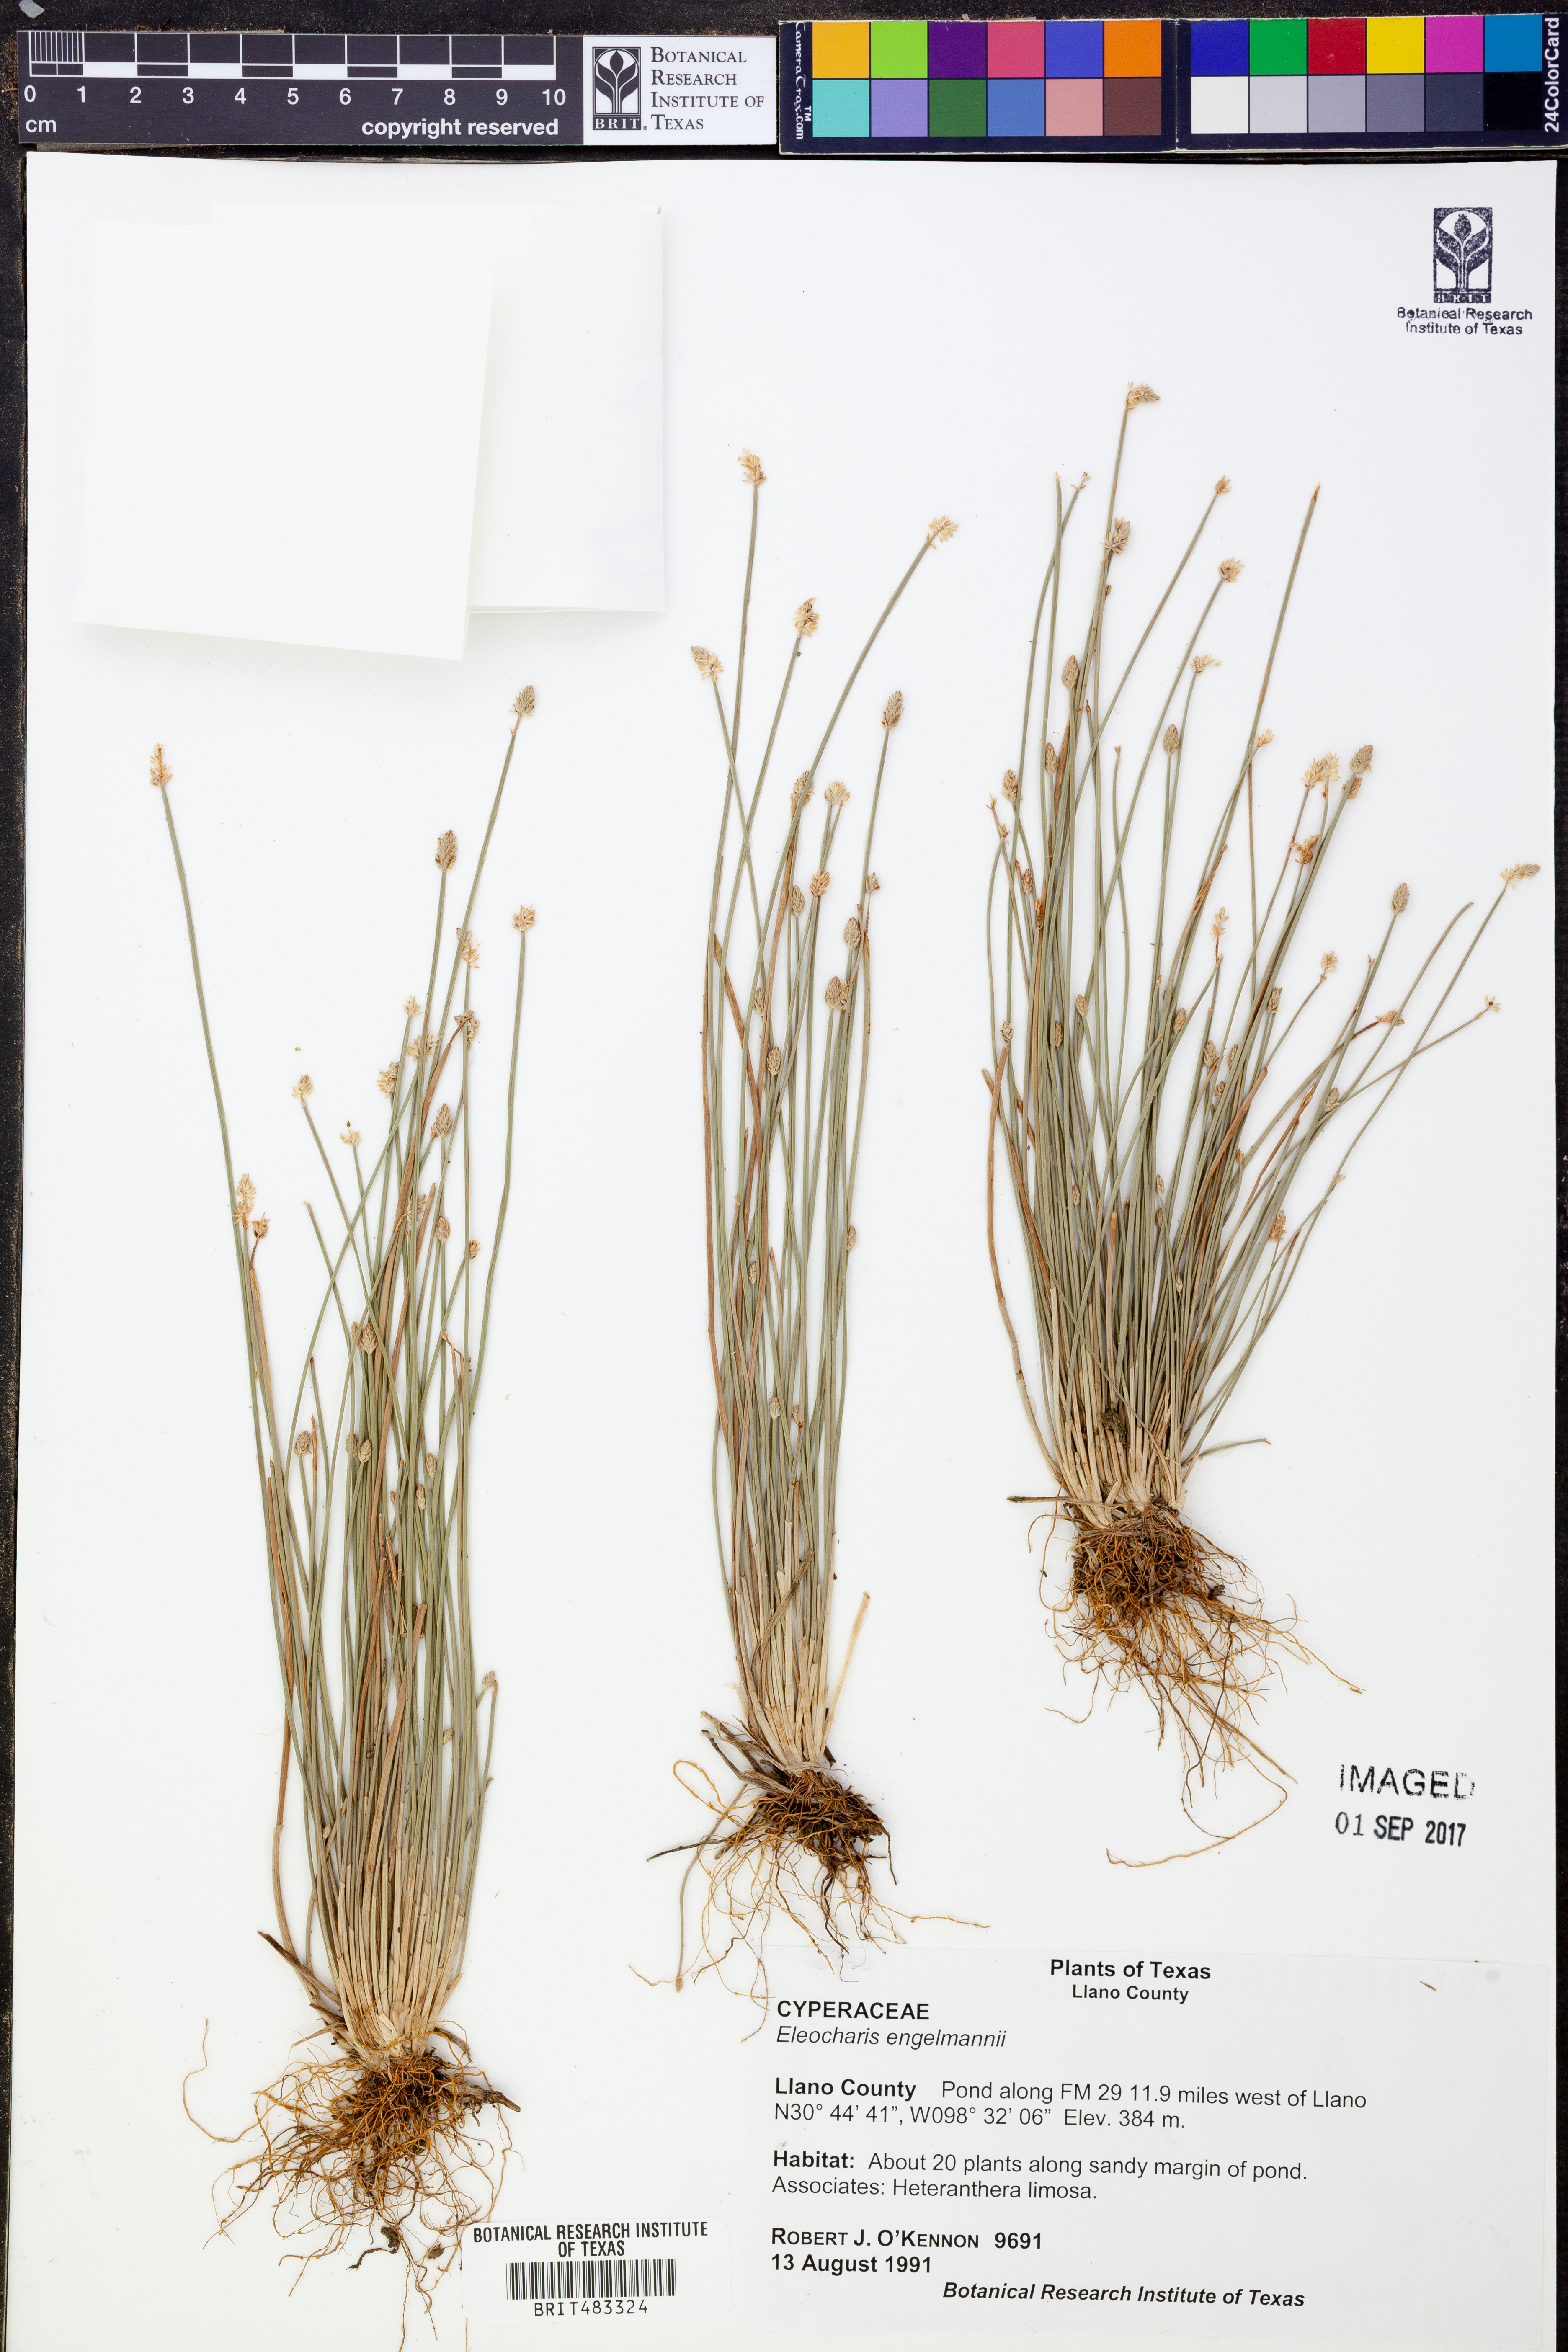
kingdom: Plantae
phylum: Tracheophyta
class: Liliopsida
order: Poales
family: Cyperaceae
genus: Eleocharis
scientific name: Eleocharis engelmannii
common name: Engelmann's spikerush
